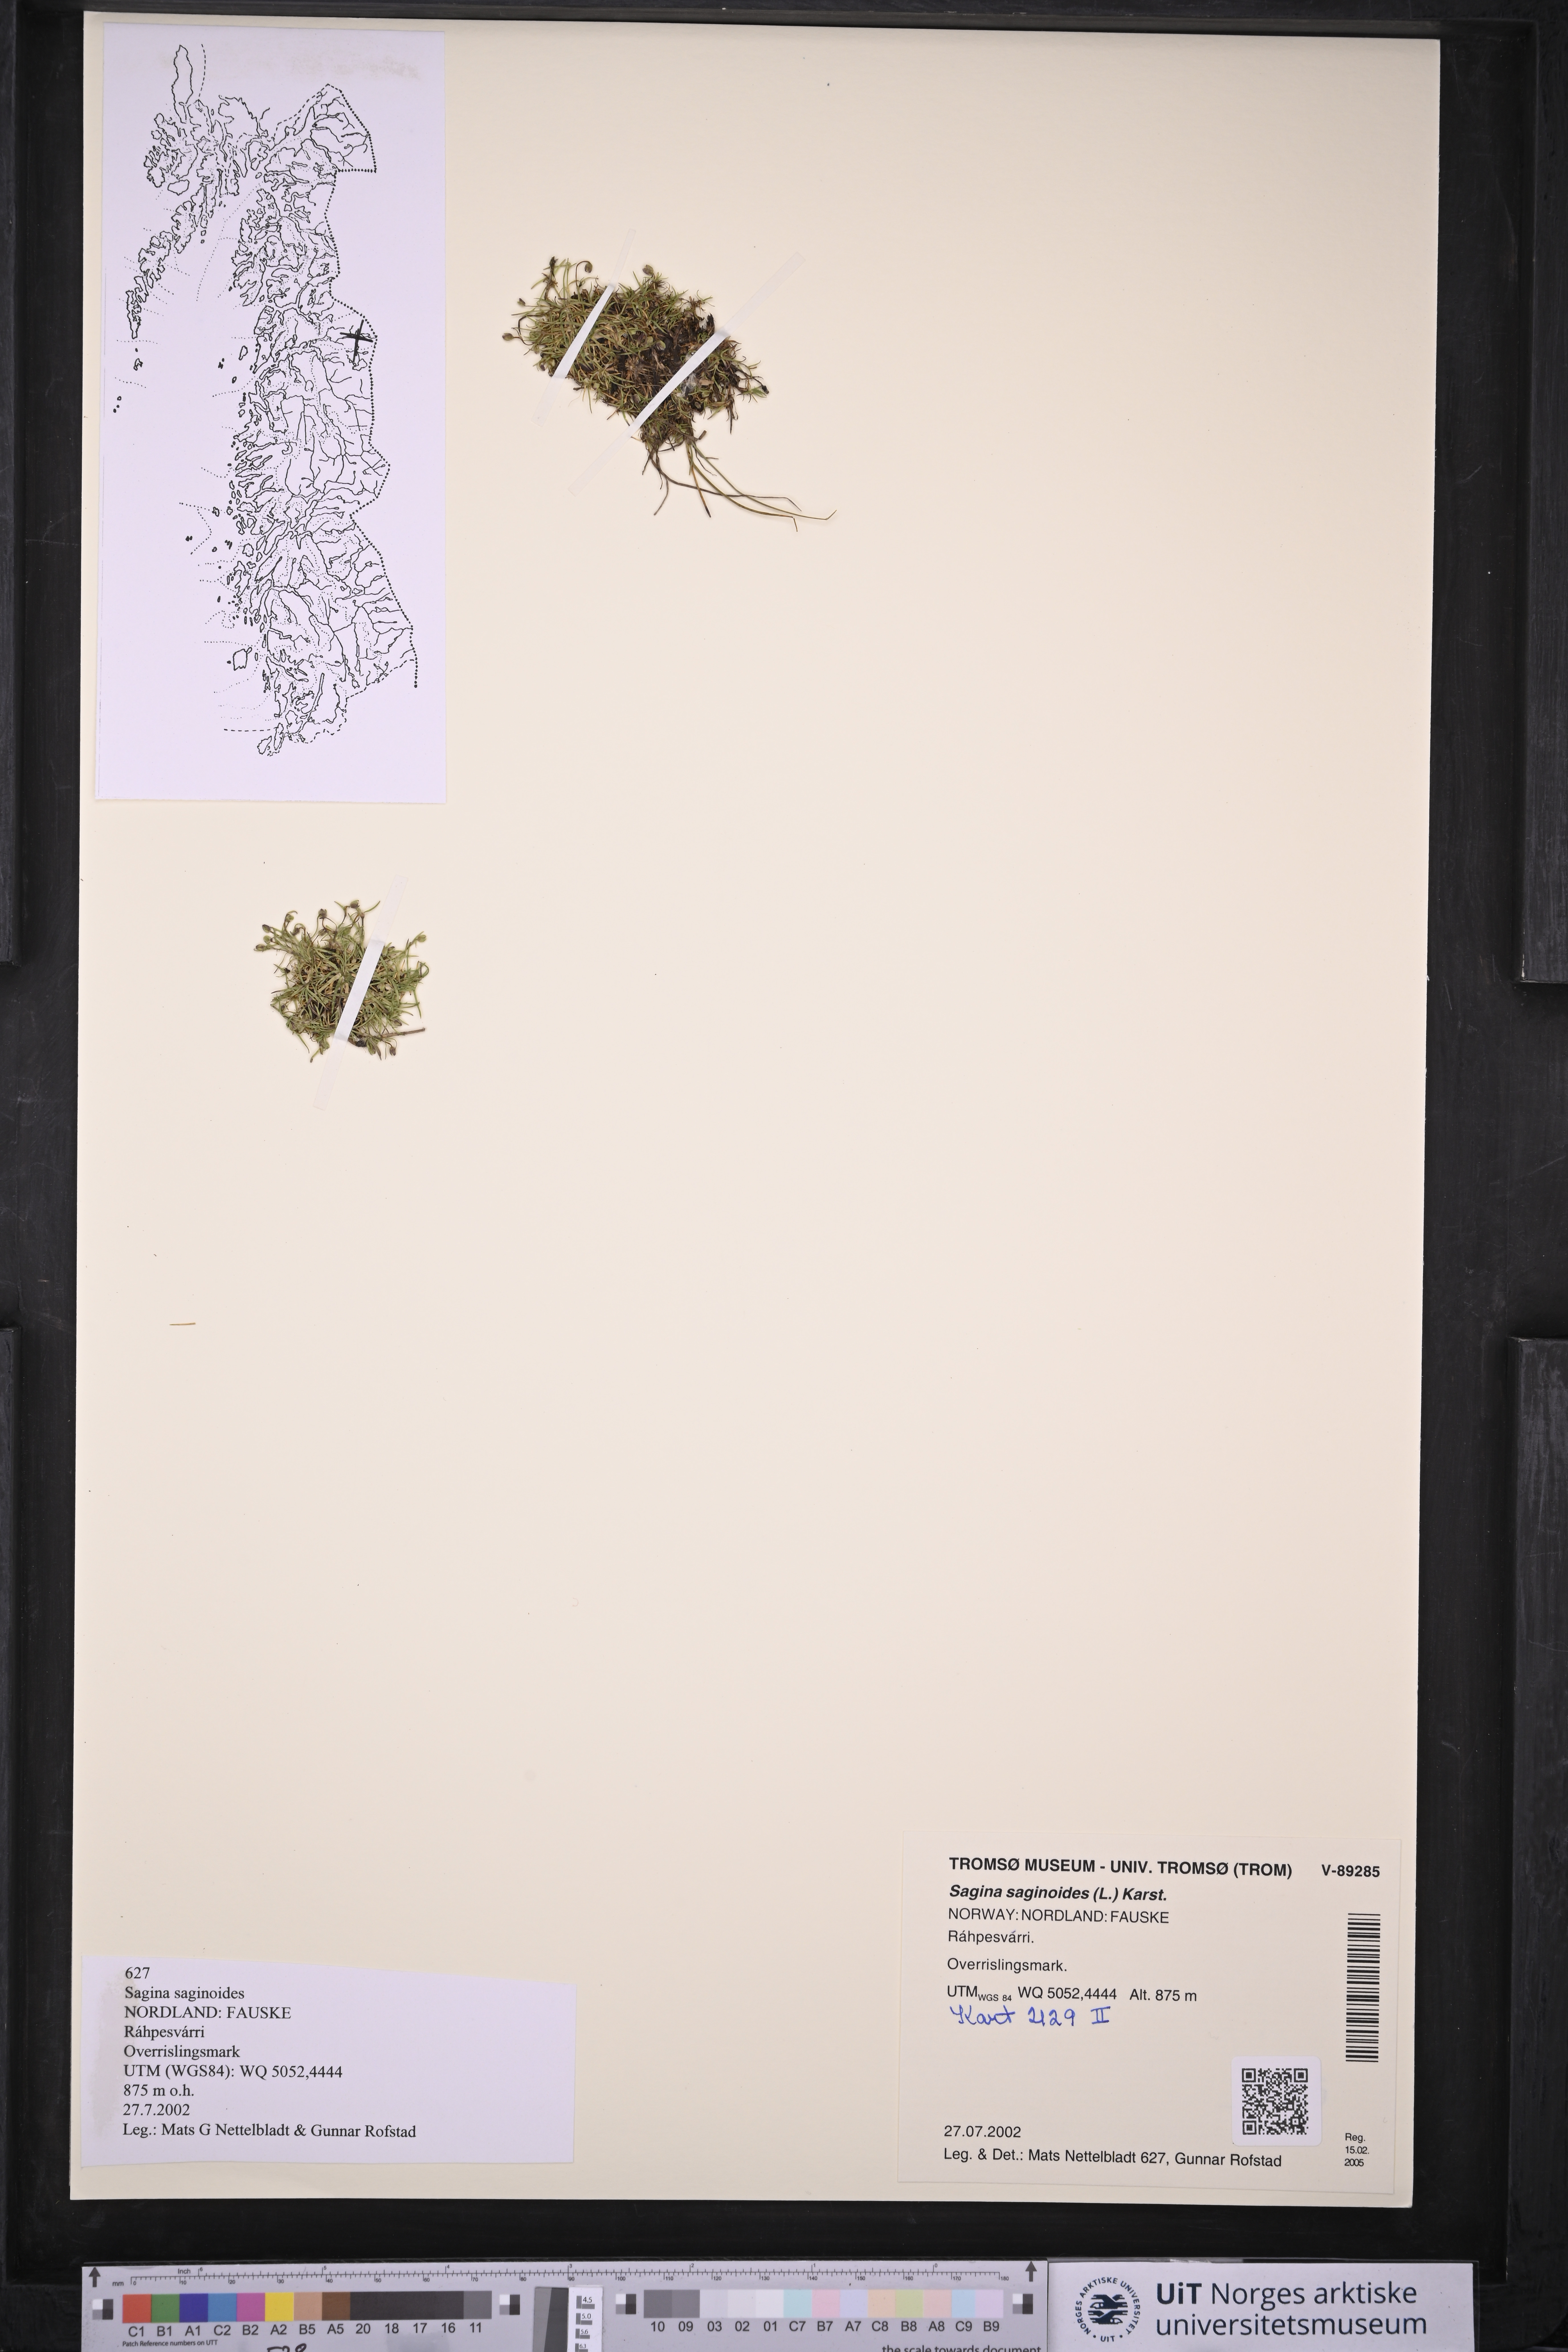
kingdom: Plantae
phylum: Tracheophyta
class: Magnoliopsida
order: Caryophyllales
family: Caryophyllaceae
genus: Sagina
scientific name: Sagina saginoides
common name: Alpine pearlwort
